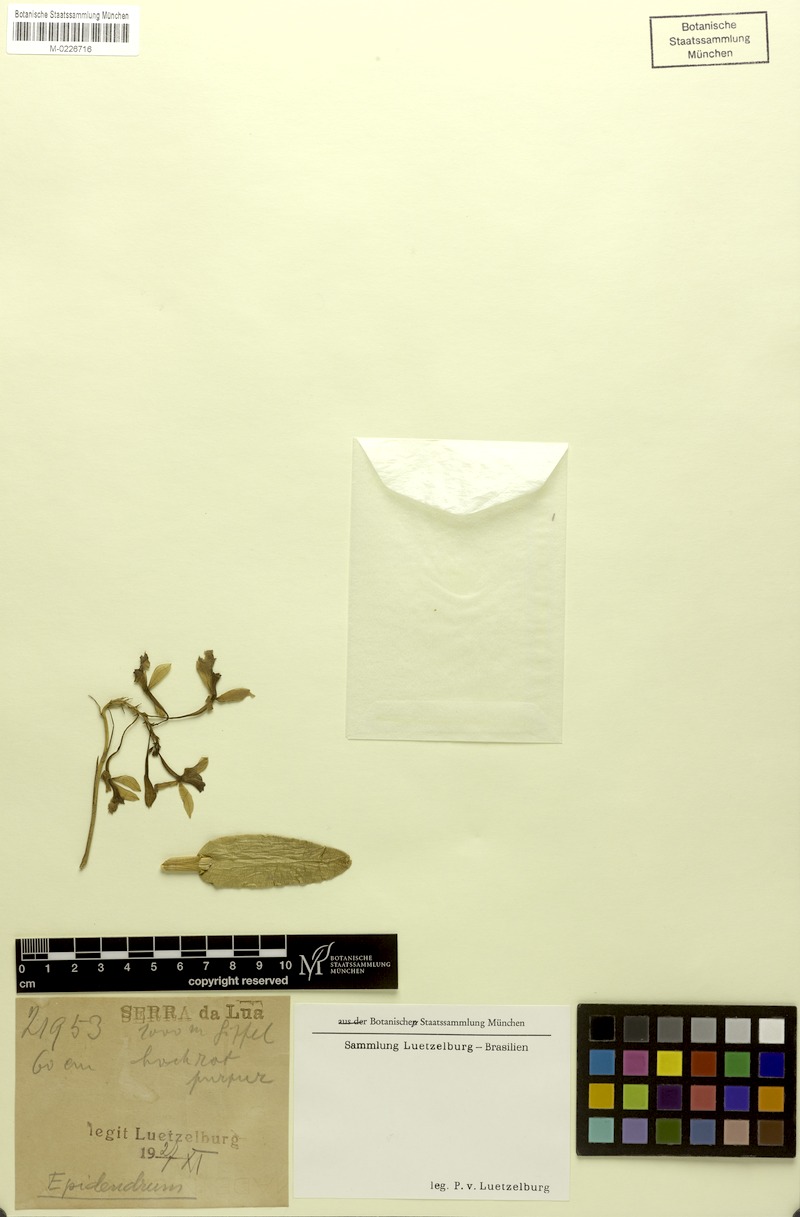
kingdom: Plantae
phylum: Tracheophyta
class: Liliopsida
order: Asparagales
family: Orchidaceae
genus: Epidendrum
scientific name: Epidendrum
